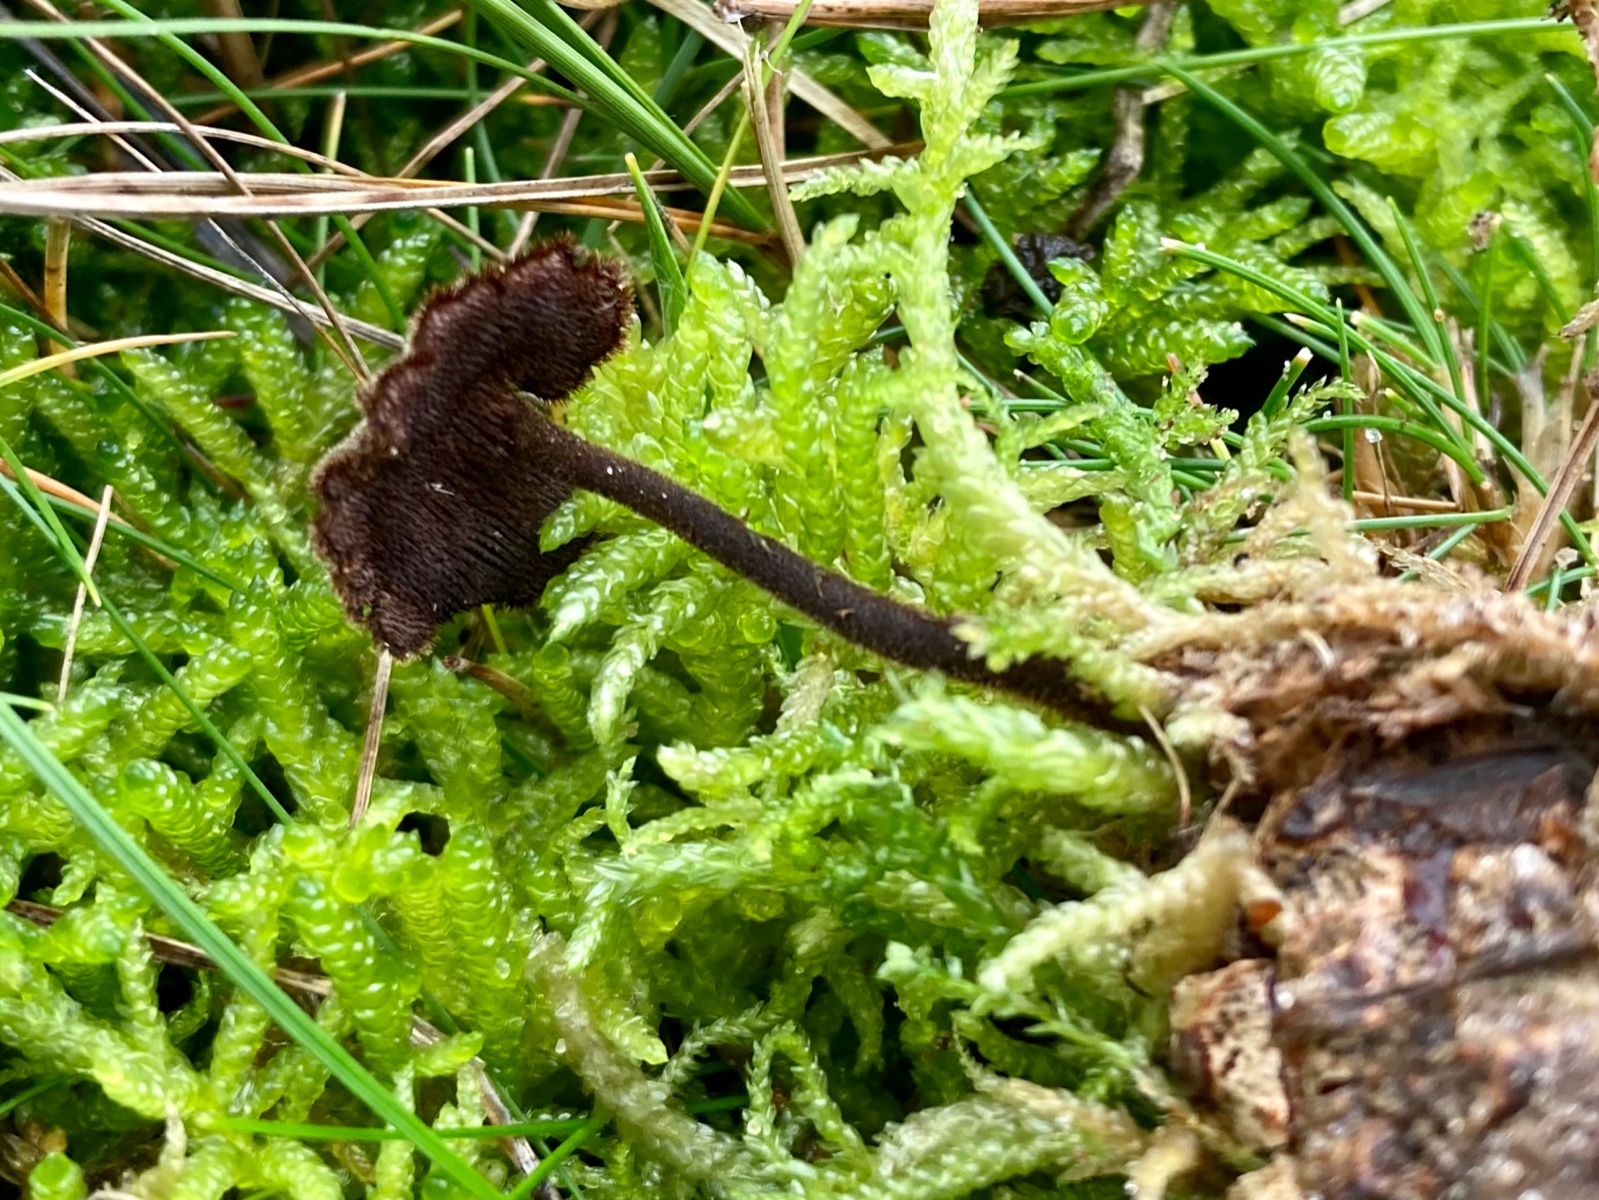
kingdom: Fungi
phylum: Basidiomycota
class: Agaricomycetes
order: Russulales
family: Auriscalpiaceae
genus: Auriscalpium
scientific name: Auriscalpium vulgare
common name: koglepigsvamp
